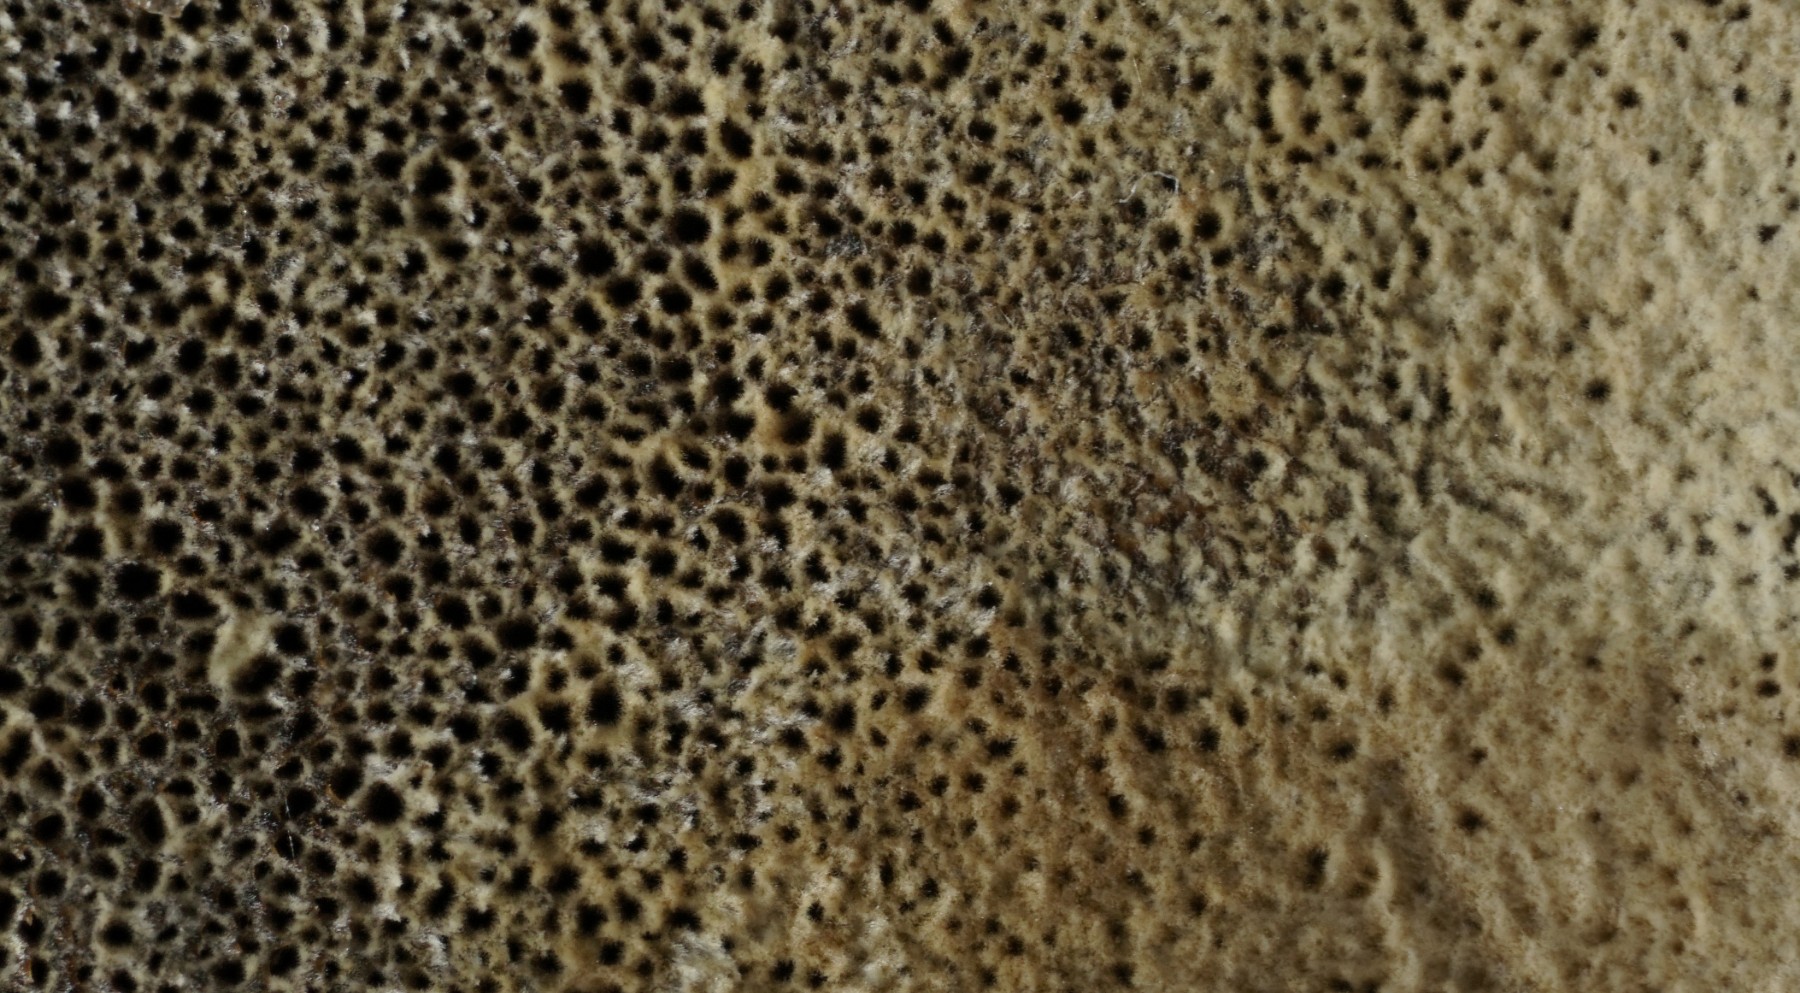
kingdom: Fungi
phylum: Basidiomycota
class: Agaricomycetes
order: Hymenochaetales
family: Hymenochaetaceae
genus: Inonotus
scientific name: Inonotus cuticularis
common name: kroghåret spejlporesvamp
